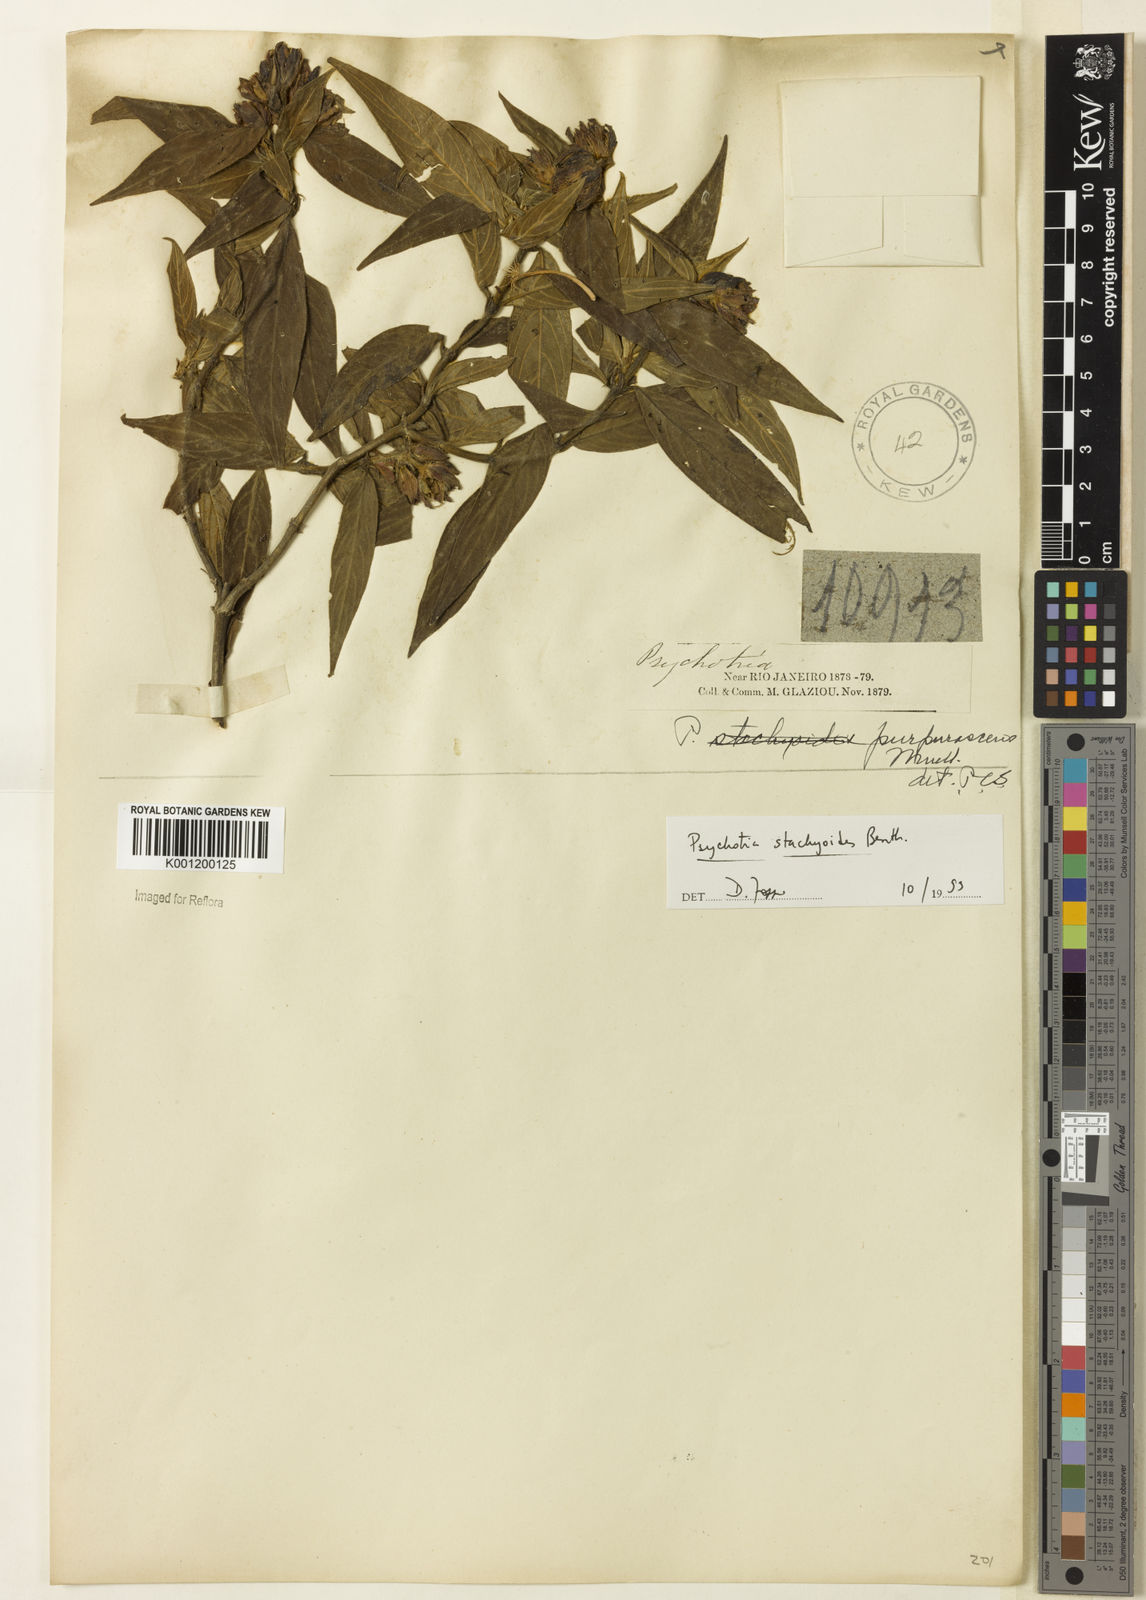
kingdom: Plantae
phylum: Tracheophyta
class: Magnoliopsida
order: Gentianales
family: Rubiaceae
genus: Psychotria
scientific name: Psychotria stachyoides
